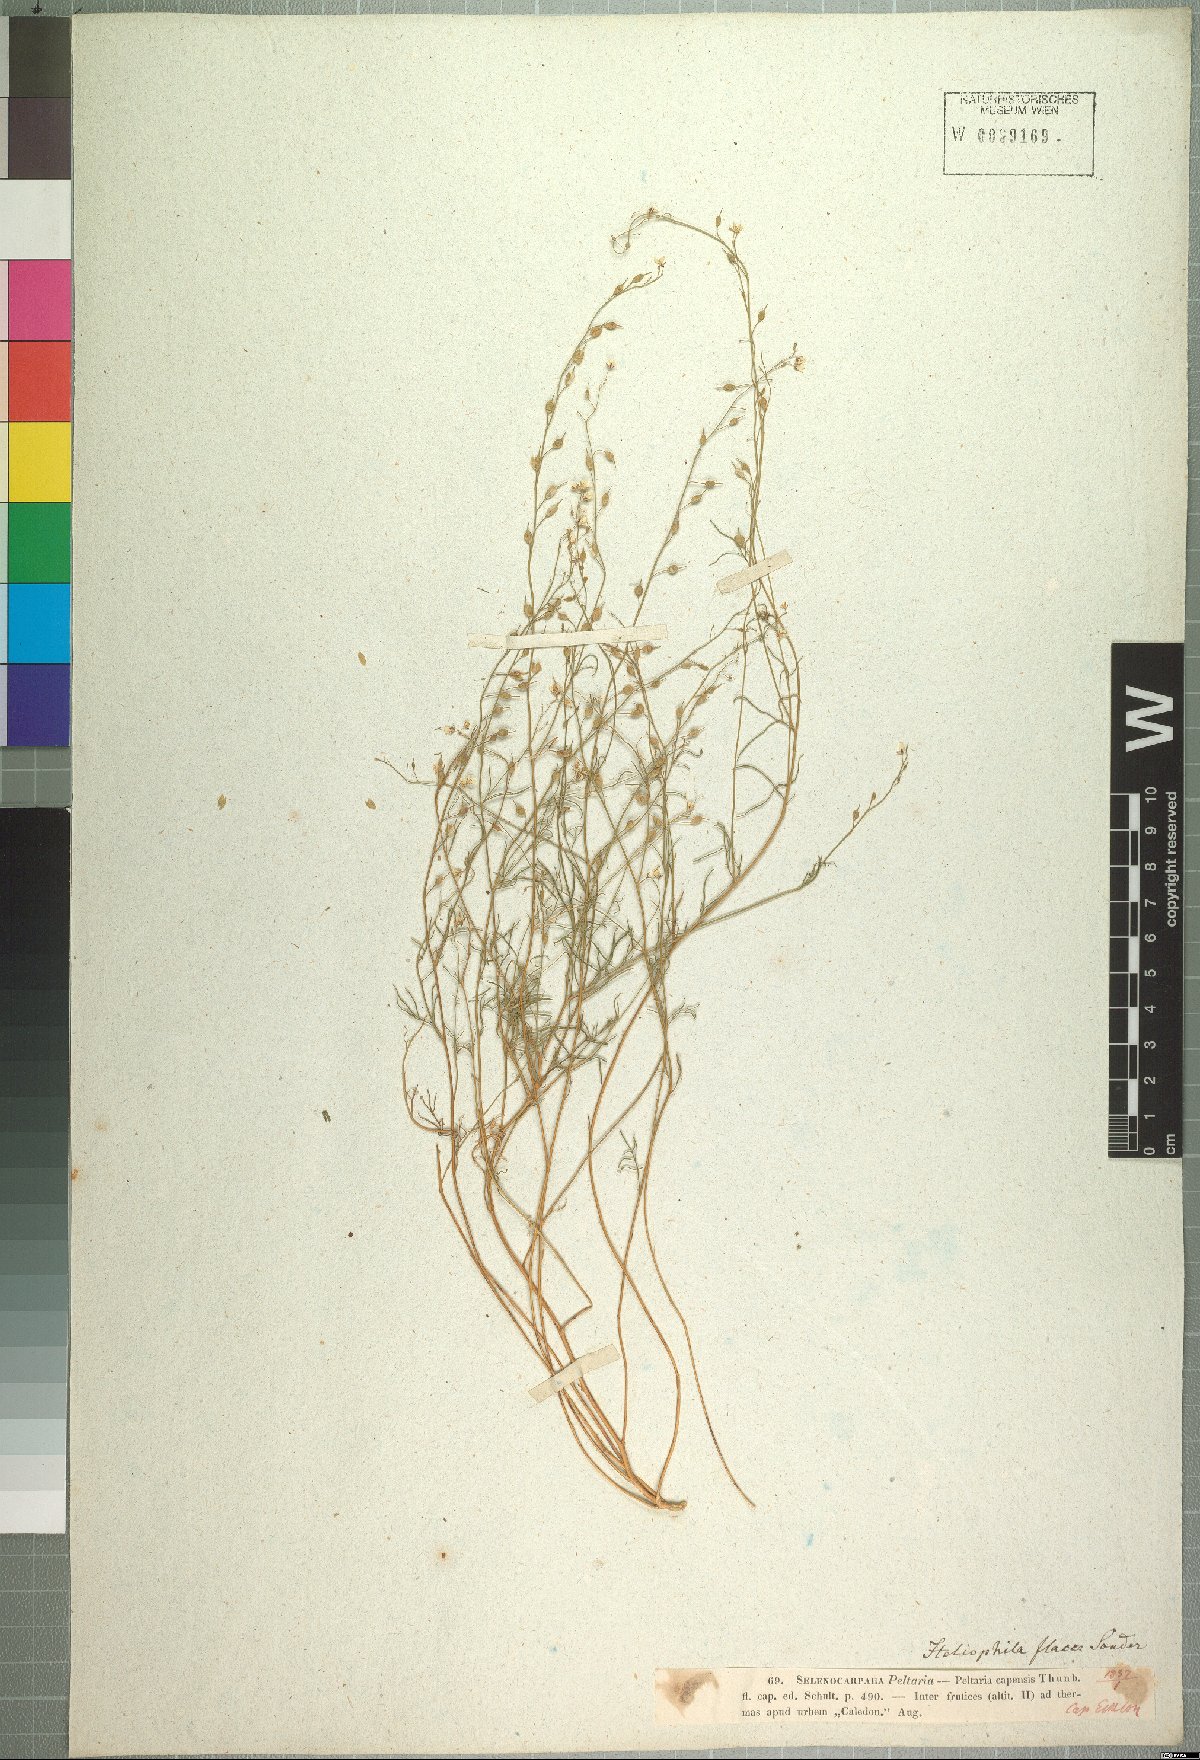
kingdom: Plantae
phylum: Tracheophyta
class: Magnoliopsida
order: Brassicales
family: Brassicaceae
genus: Heliophila
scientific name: Heliophila diffusa
